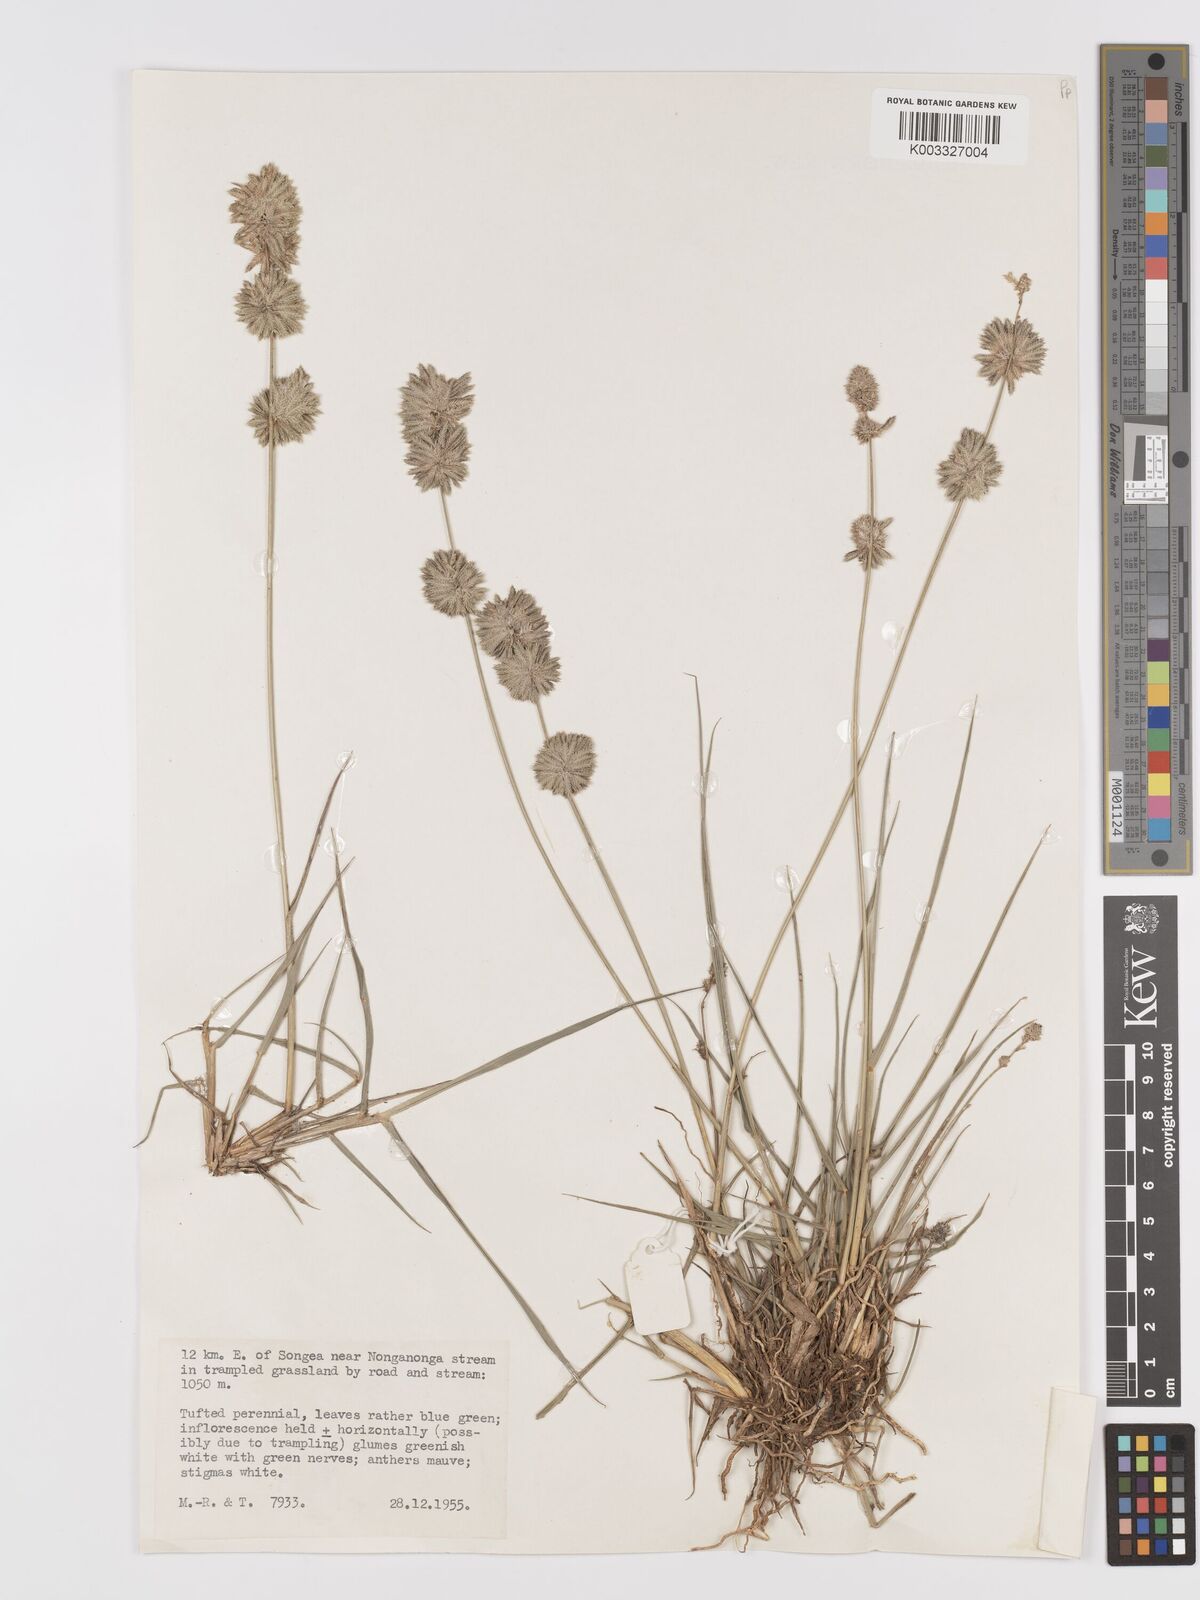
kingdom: Plantae
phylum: Tracheophyta
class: Liliopsida
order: Poales
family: Poaceae
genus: Eragrostis
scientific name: Eragrostis congesta
